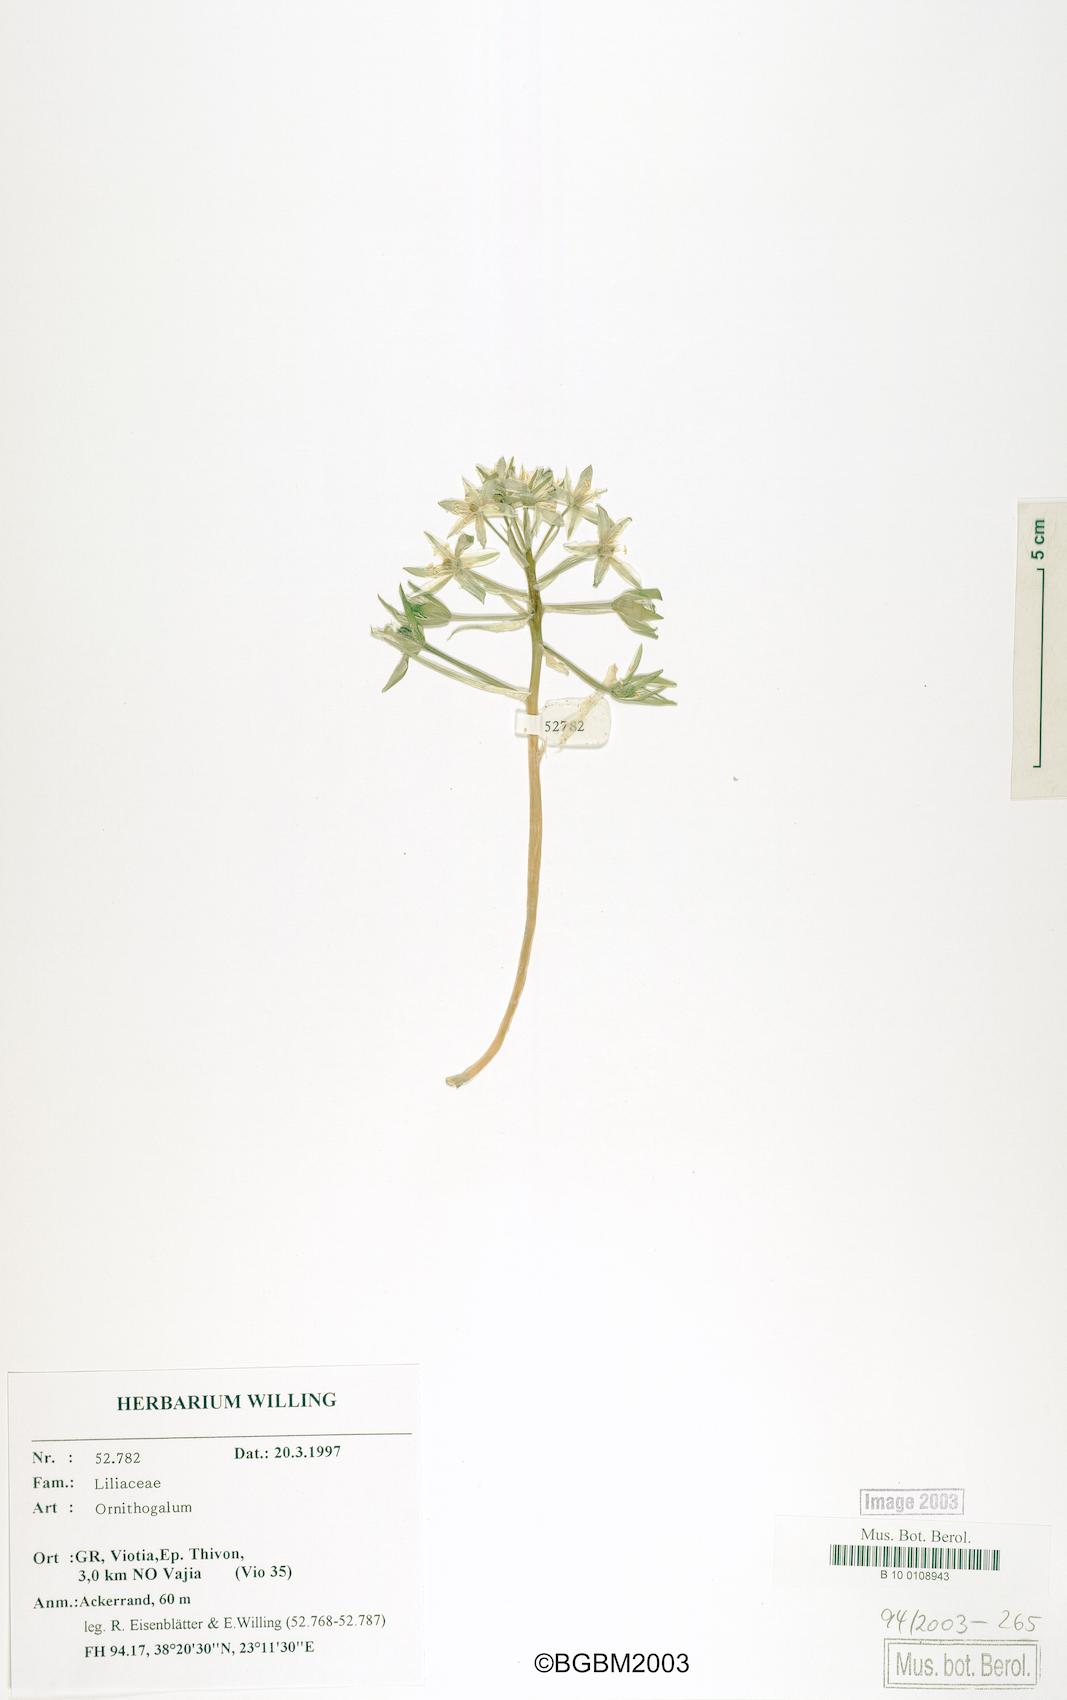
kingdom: Plantae
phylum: Tracheophyta
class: Liliopsida
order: Asparagales
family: Asparagaceae
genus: Ornithogalum
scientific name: Ornithogalum
